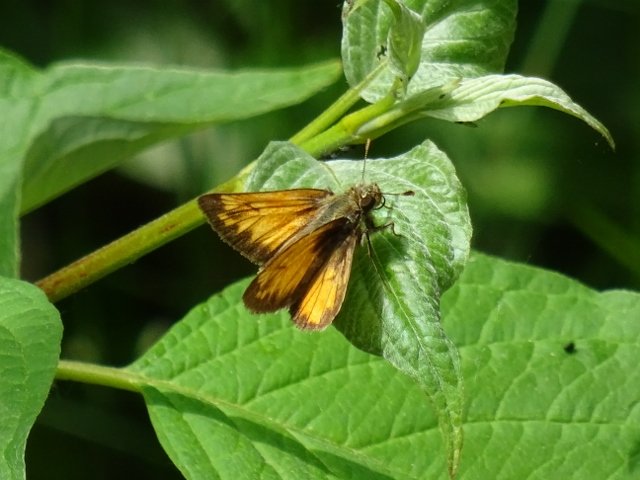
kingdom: Animalia
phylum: Arthropoda
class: Insecta
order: Lepidoptera
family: Hesperiidae
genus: Lon
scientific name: Lon hobomok
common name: Hobomok Skipper
